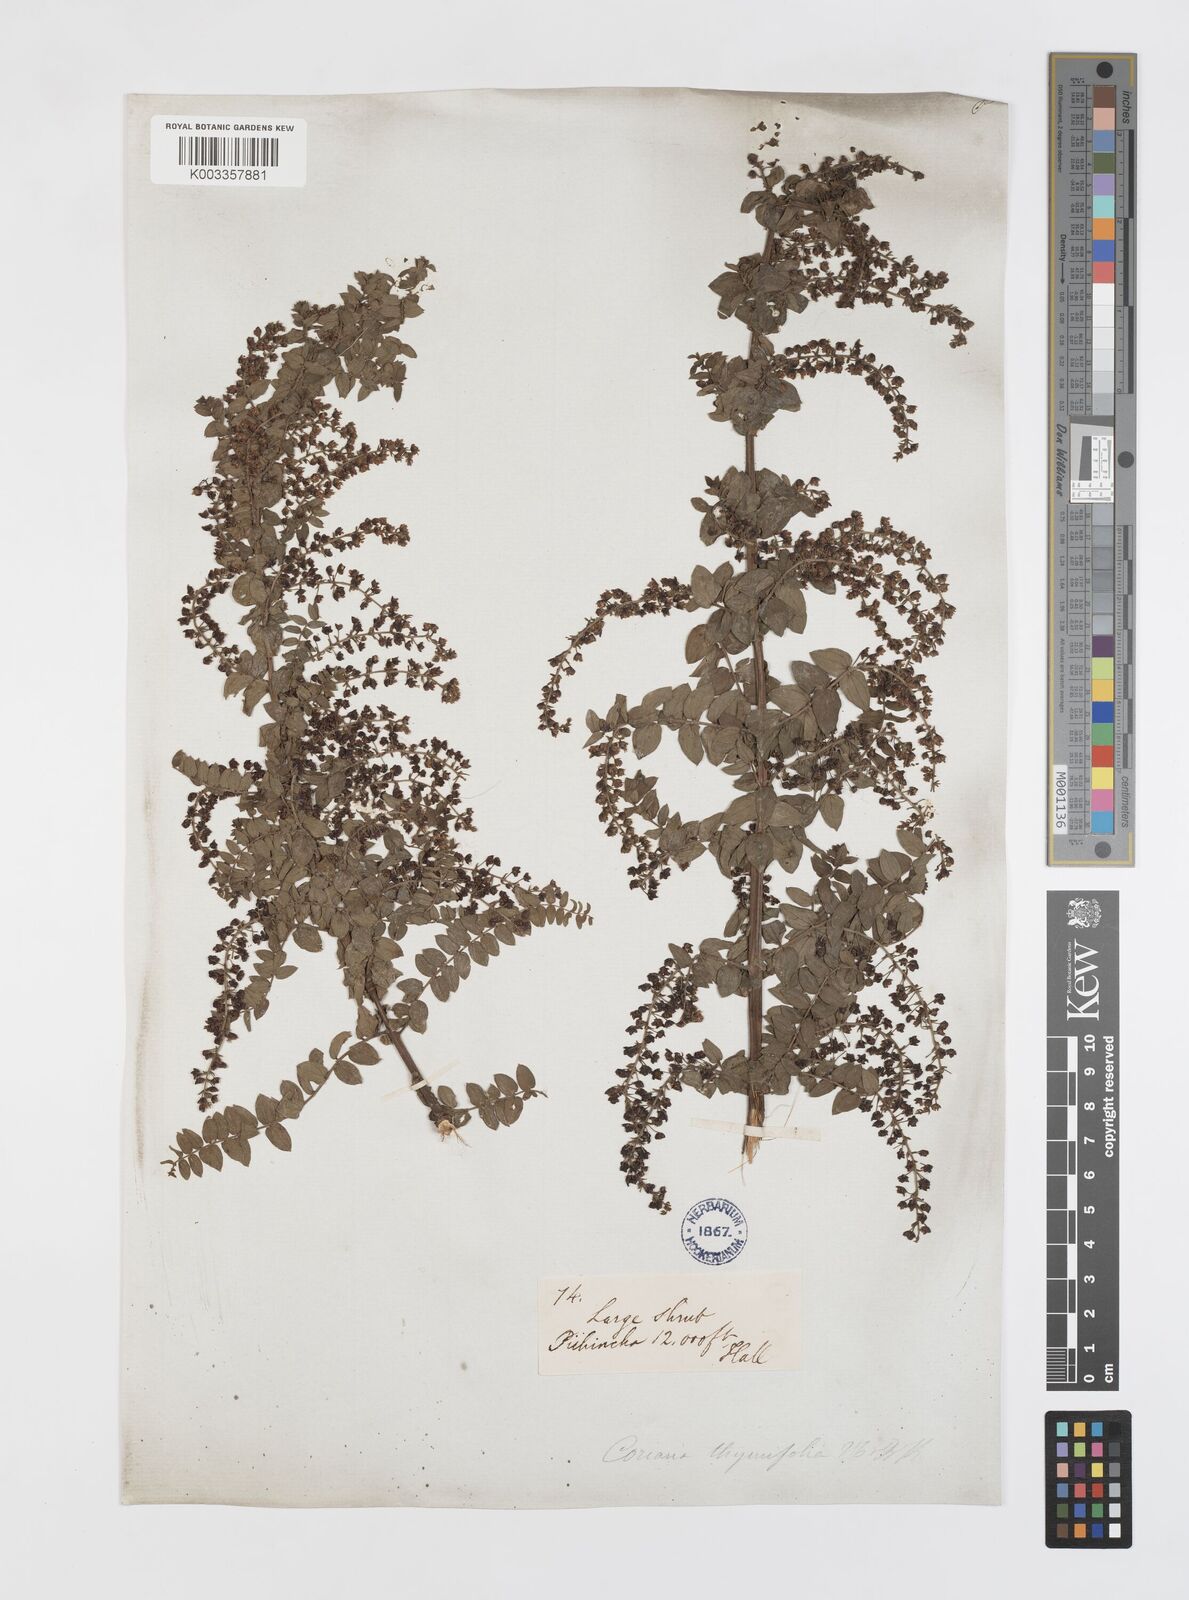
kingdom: Plantae
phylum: Tracheophyta
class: Magnoliopsida
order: Cucurbitales
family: Coriariaceae
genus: Coriaria
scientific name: Coriaria microphylla
